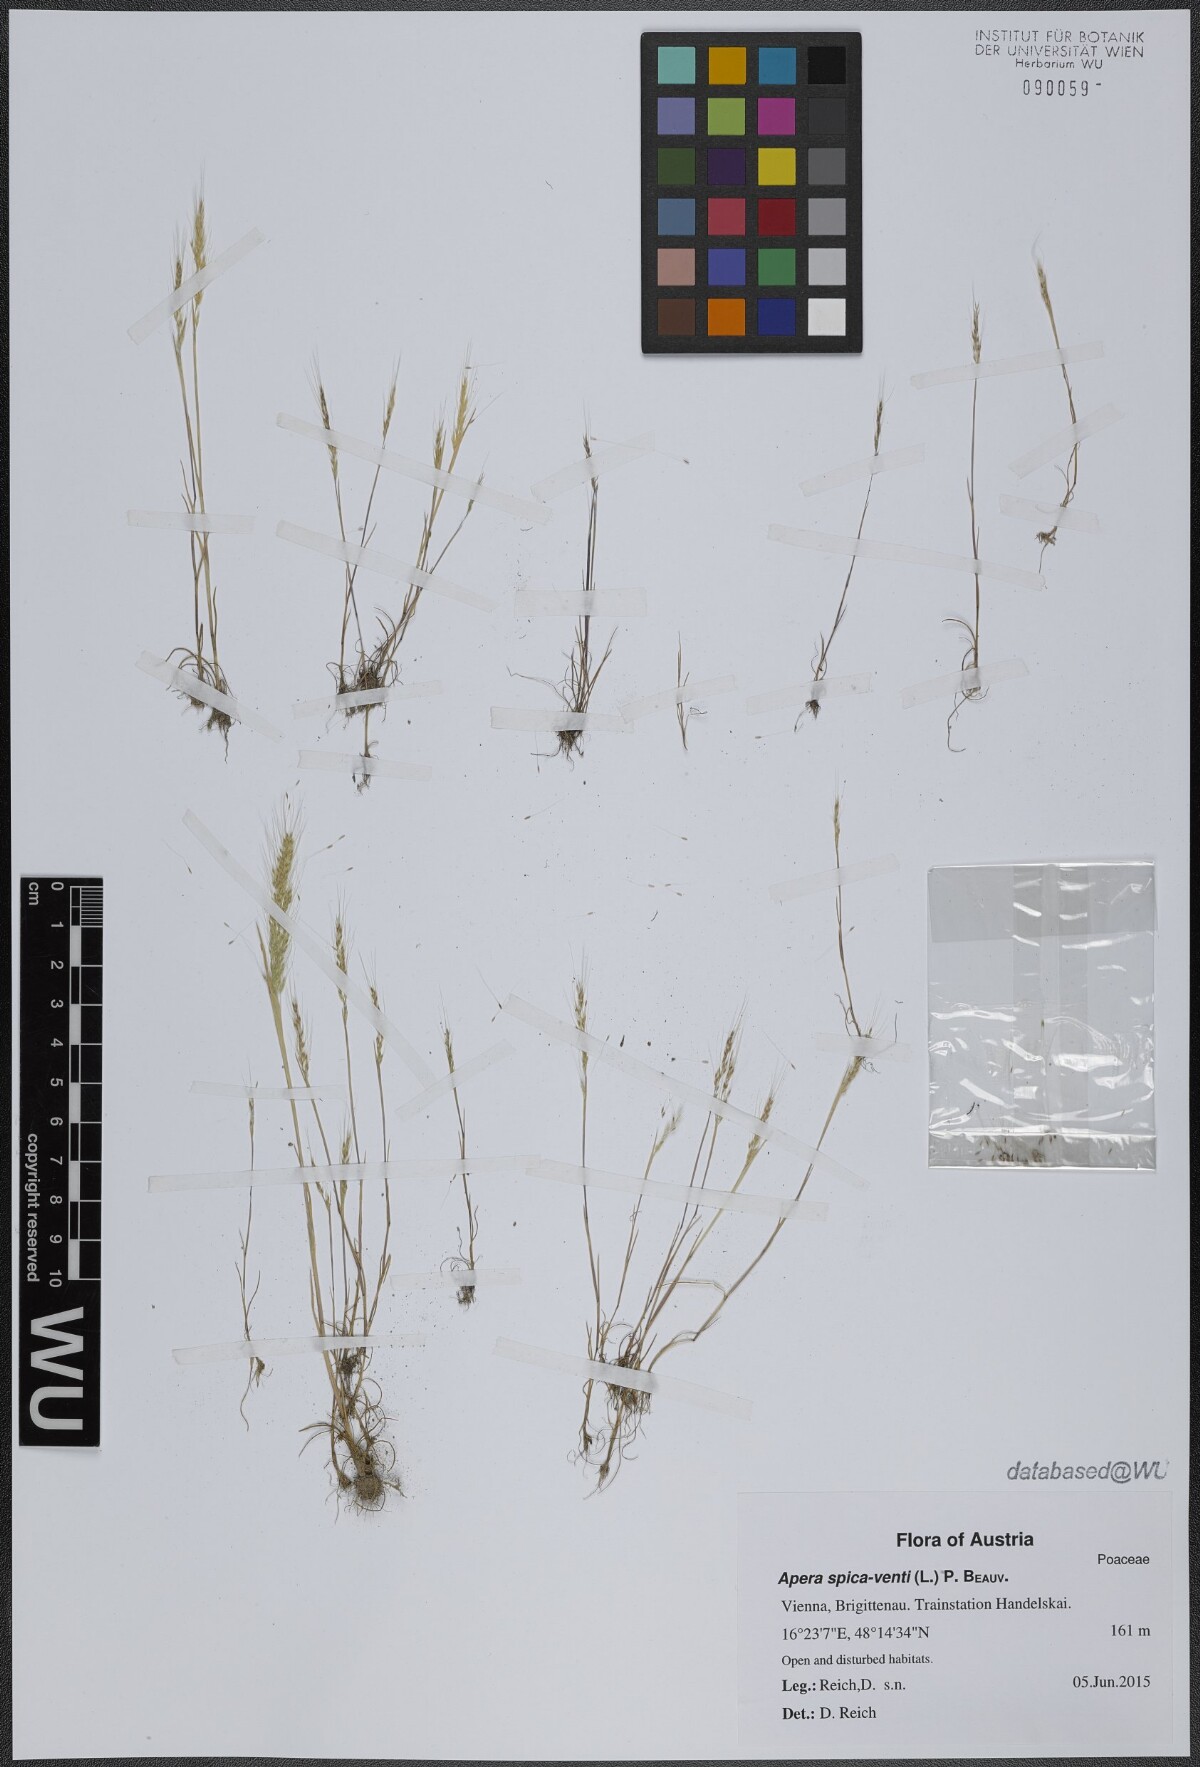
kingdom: Plantae
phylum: Tracheophyta
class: Liliopsida
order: Poales
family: Poaceae
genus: Apera
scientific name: Apera spica-venti
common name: Loose silky-bent
